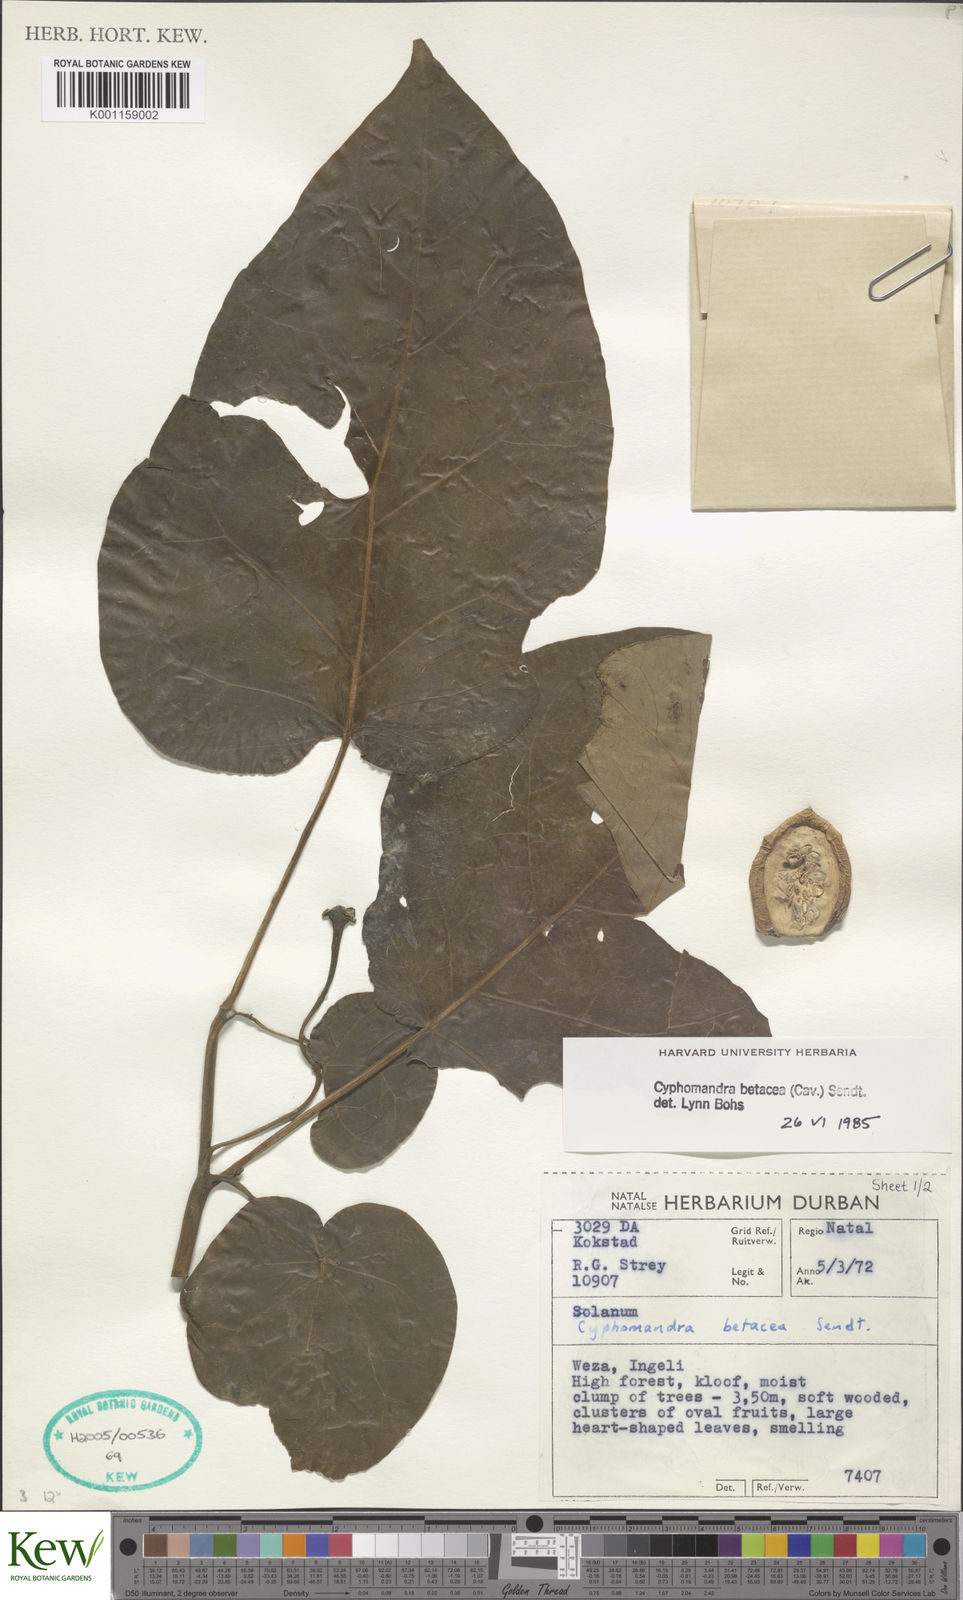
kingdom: Plantae
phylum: Tracheophyta
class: Magnoliopsida
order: Solanales
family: Solanaceae
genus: Solanum
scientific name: Solanum betaceum
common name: Tamarillo
